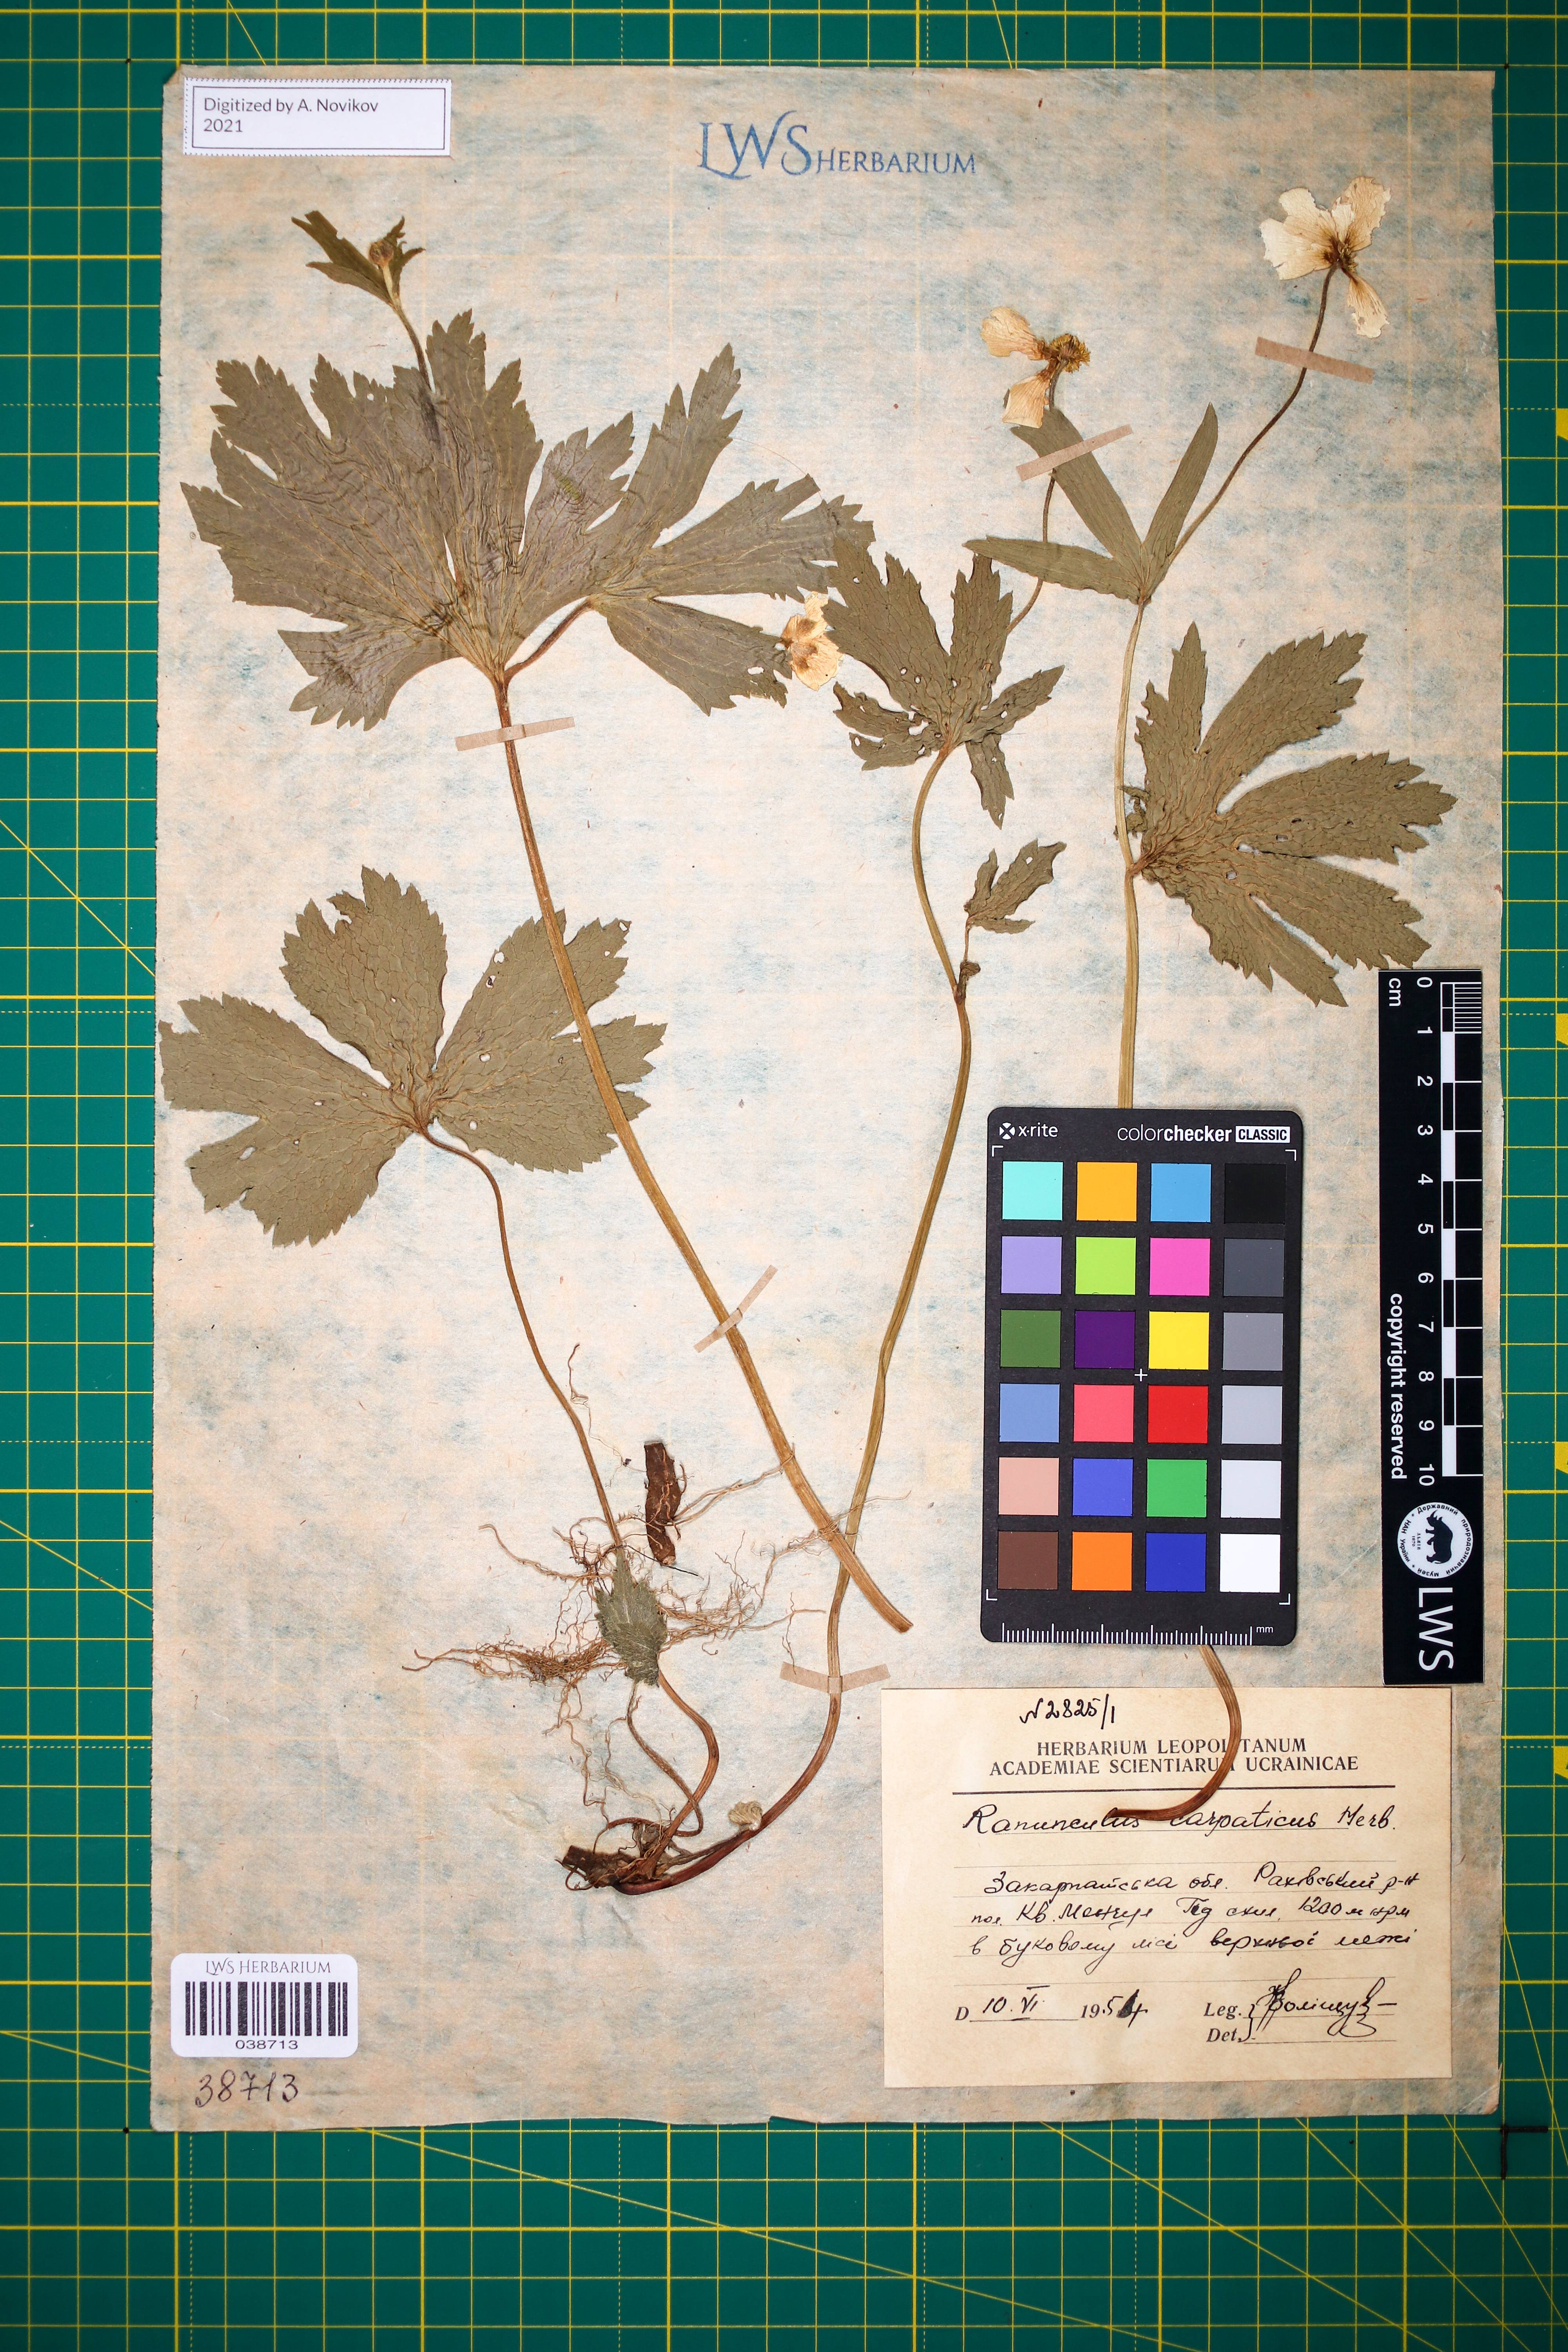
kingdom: Plantae
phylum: Tracheophyta
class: Magnoliopsida
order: Ranunculales
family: Ranunculaceae
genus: Ranunculus
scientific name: Ranunculus carpaticus
